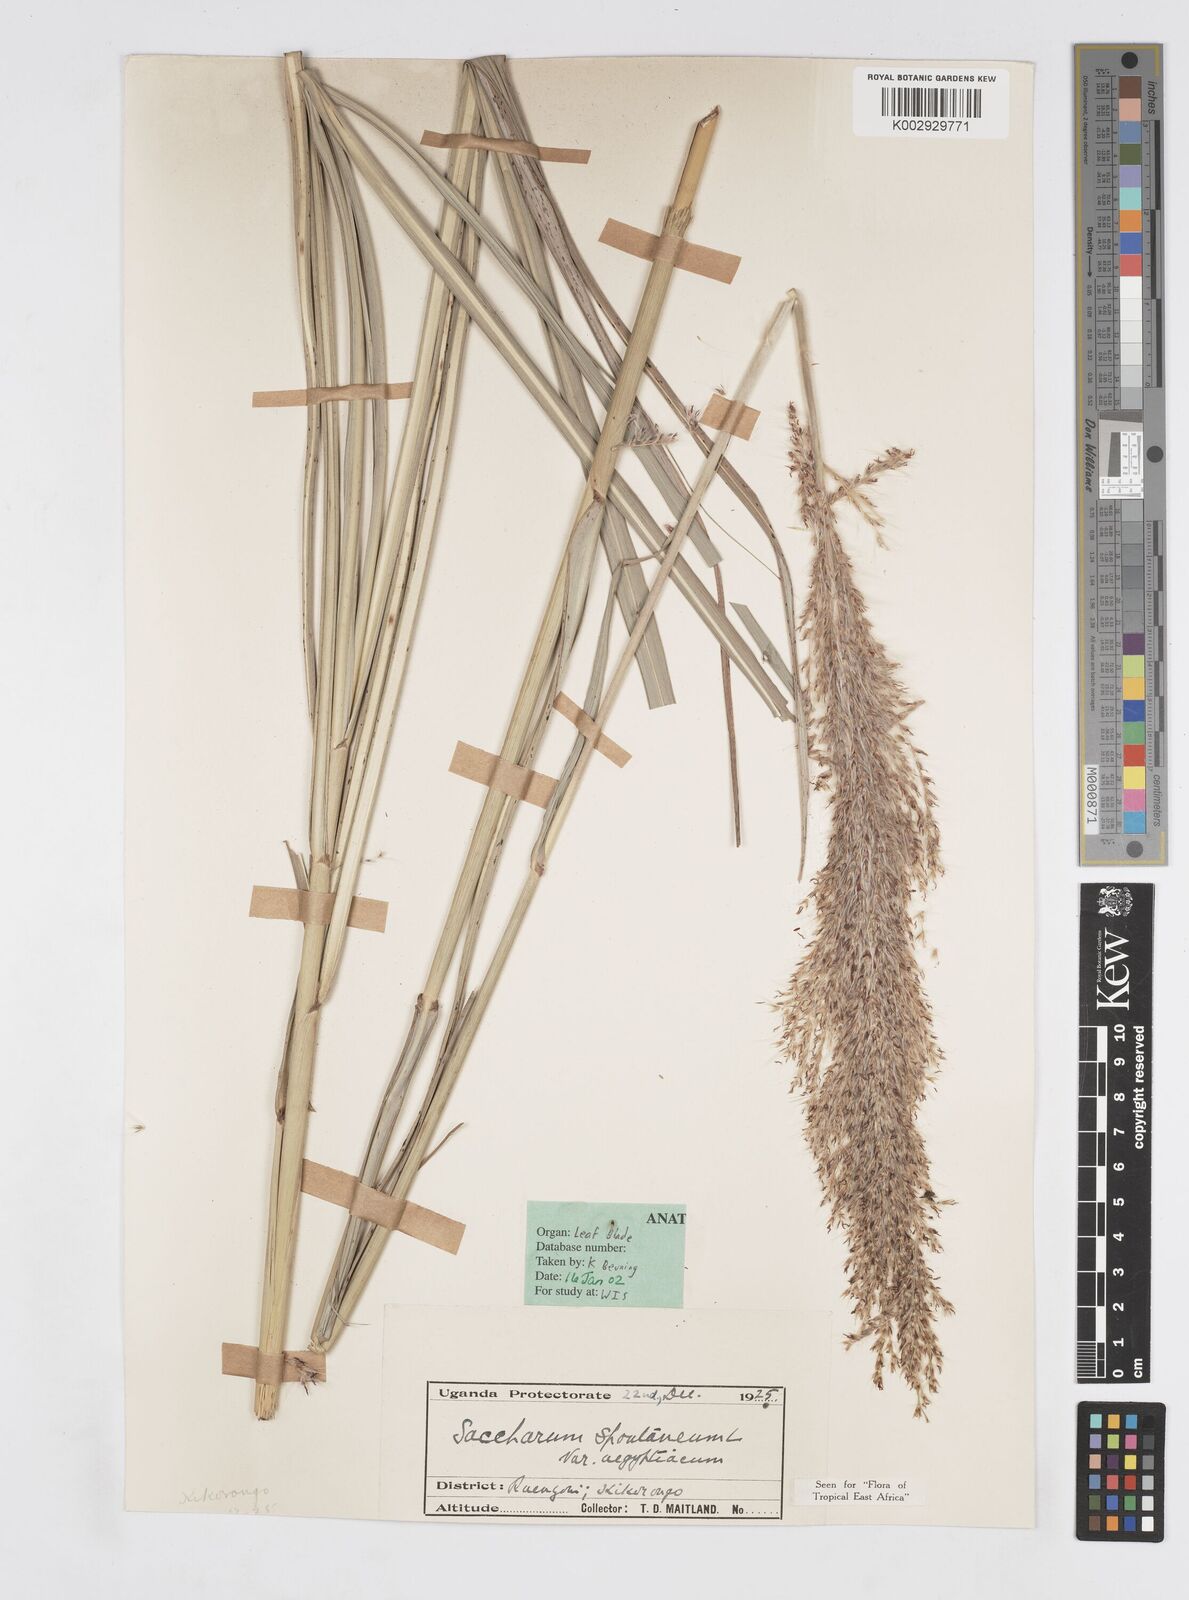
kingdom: Plantae
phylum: Tracheophyta
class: Liliopsida
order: Poales
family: Poaceae
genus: Saccharum
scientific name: Saccharum spontaneum
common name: Wild sugarcane
